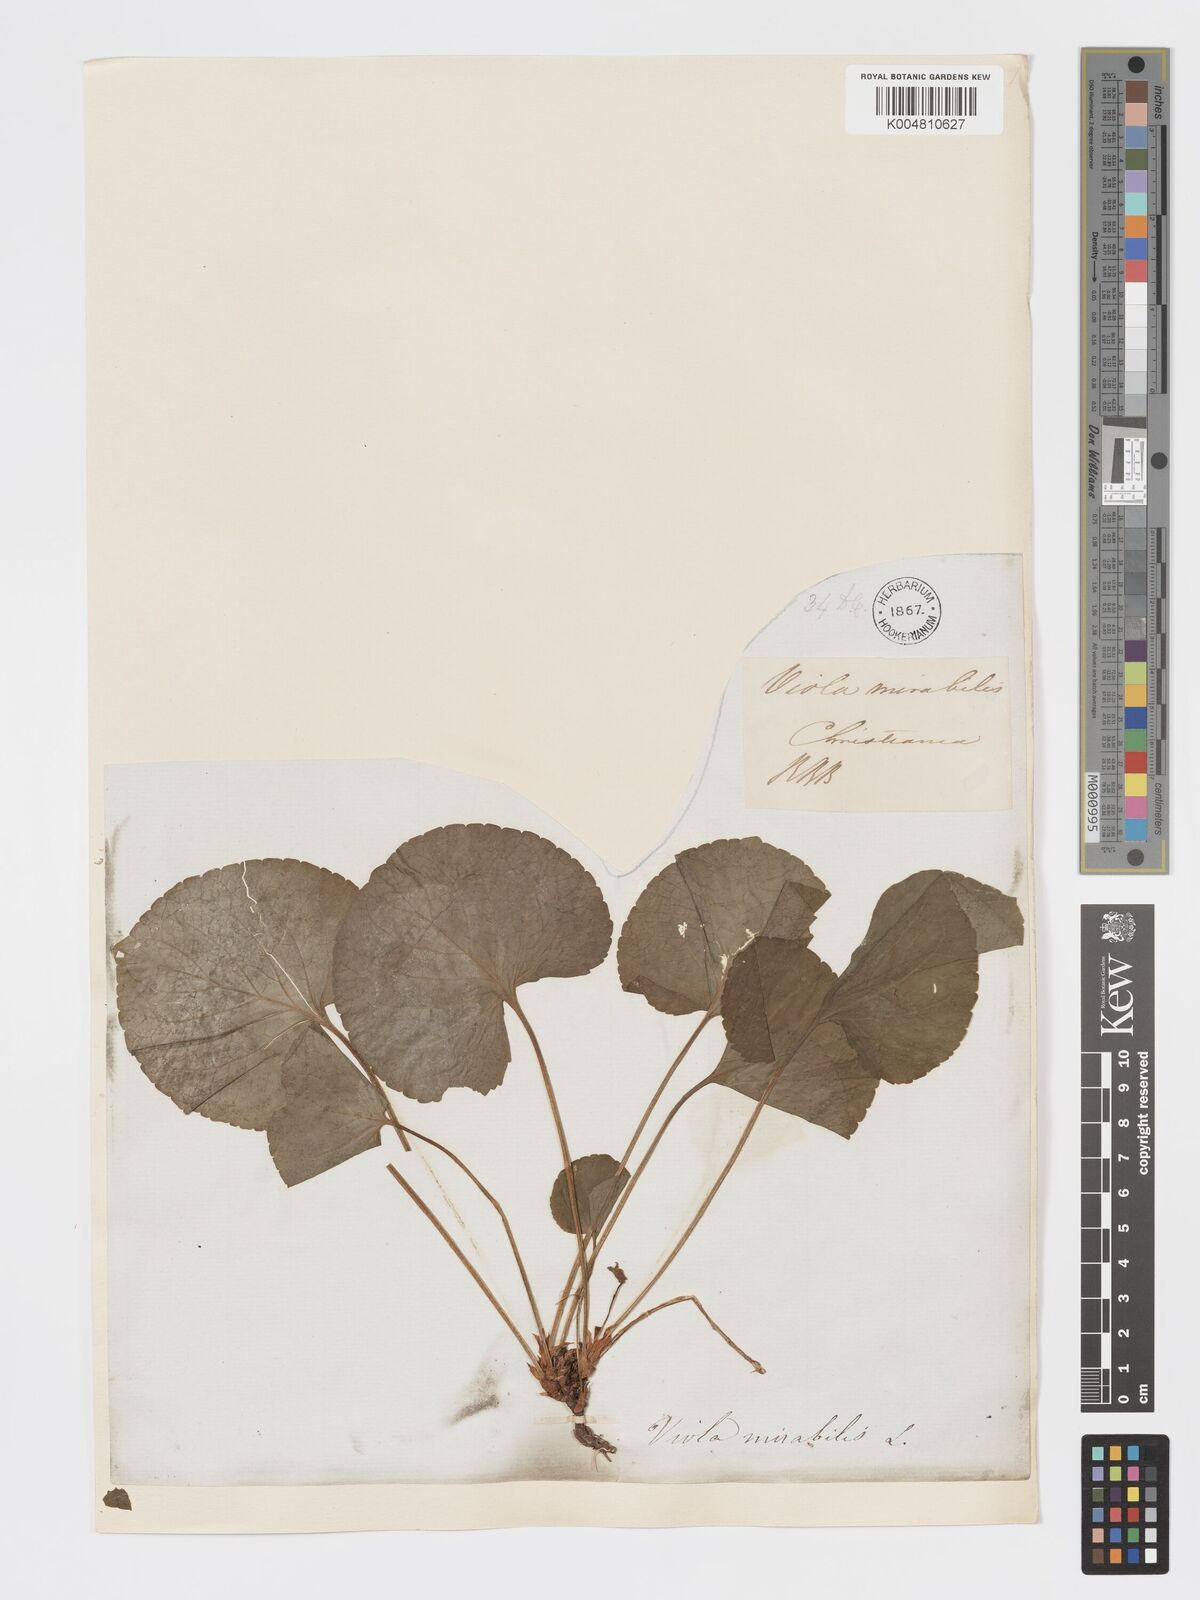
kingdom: Plantae
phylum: Tracheophyta
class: Magnoliopsida
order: Malpighiales
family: Violaceae
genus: Viola
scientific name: Viola mirabilis
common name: Wonder violet
